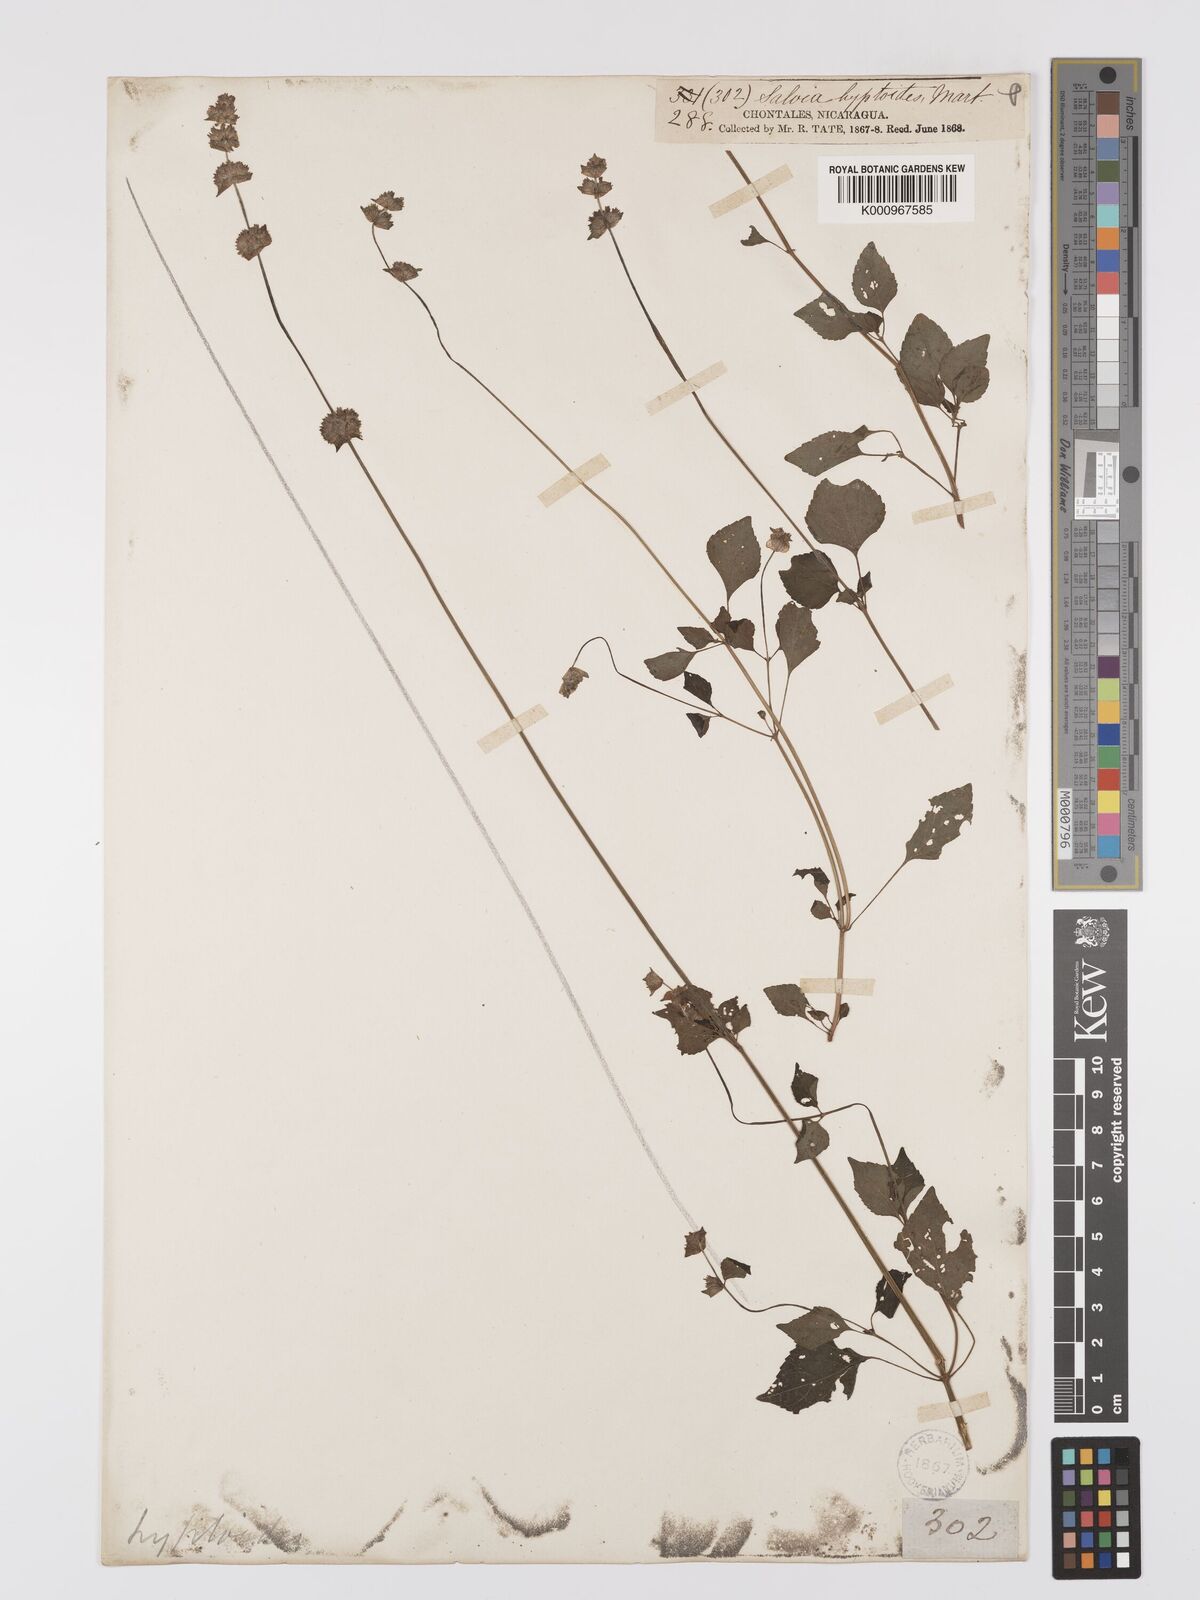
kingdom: Plantae
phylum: Tracheophyta
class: Magnoliopsida
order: Lamiales
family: Lamiaceae
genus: Salvia
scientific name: Salvia lasiocephala
